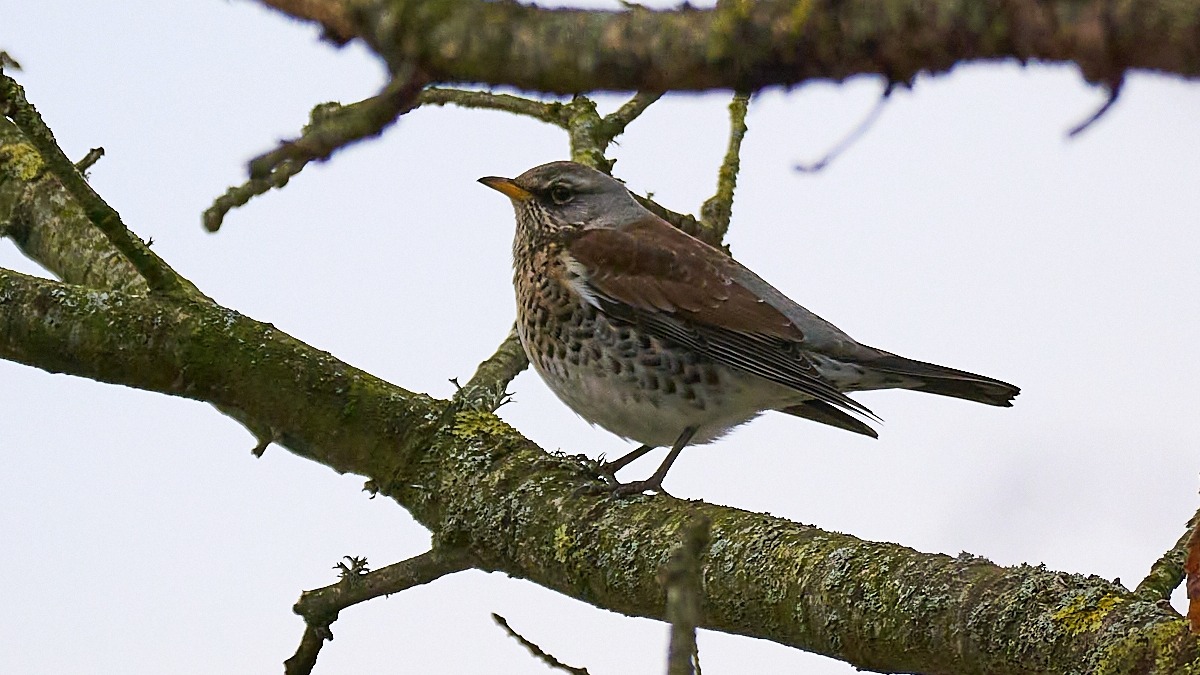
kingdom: Animalia
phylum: Chordata
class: Aves
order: Passeriformes
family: Turdidae
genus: Turdus
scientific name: Turdus pilaris
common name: Sjagger
